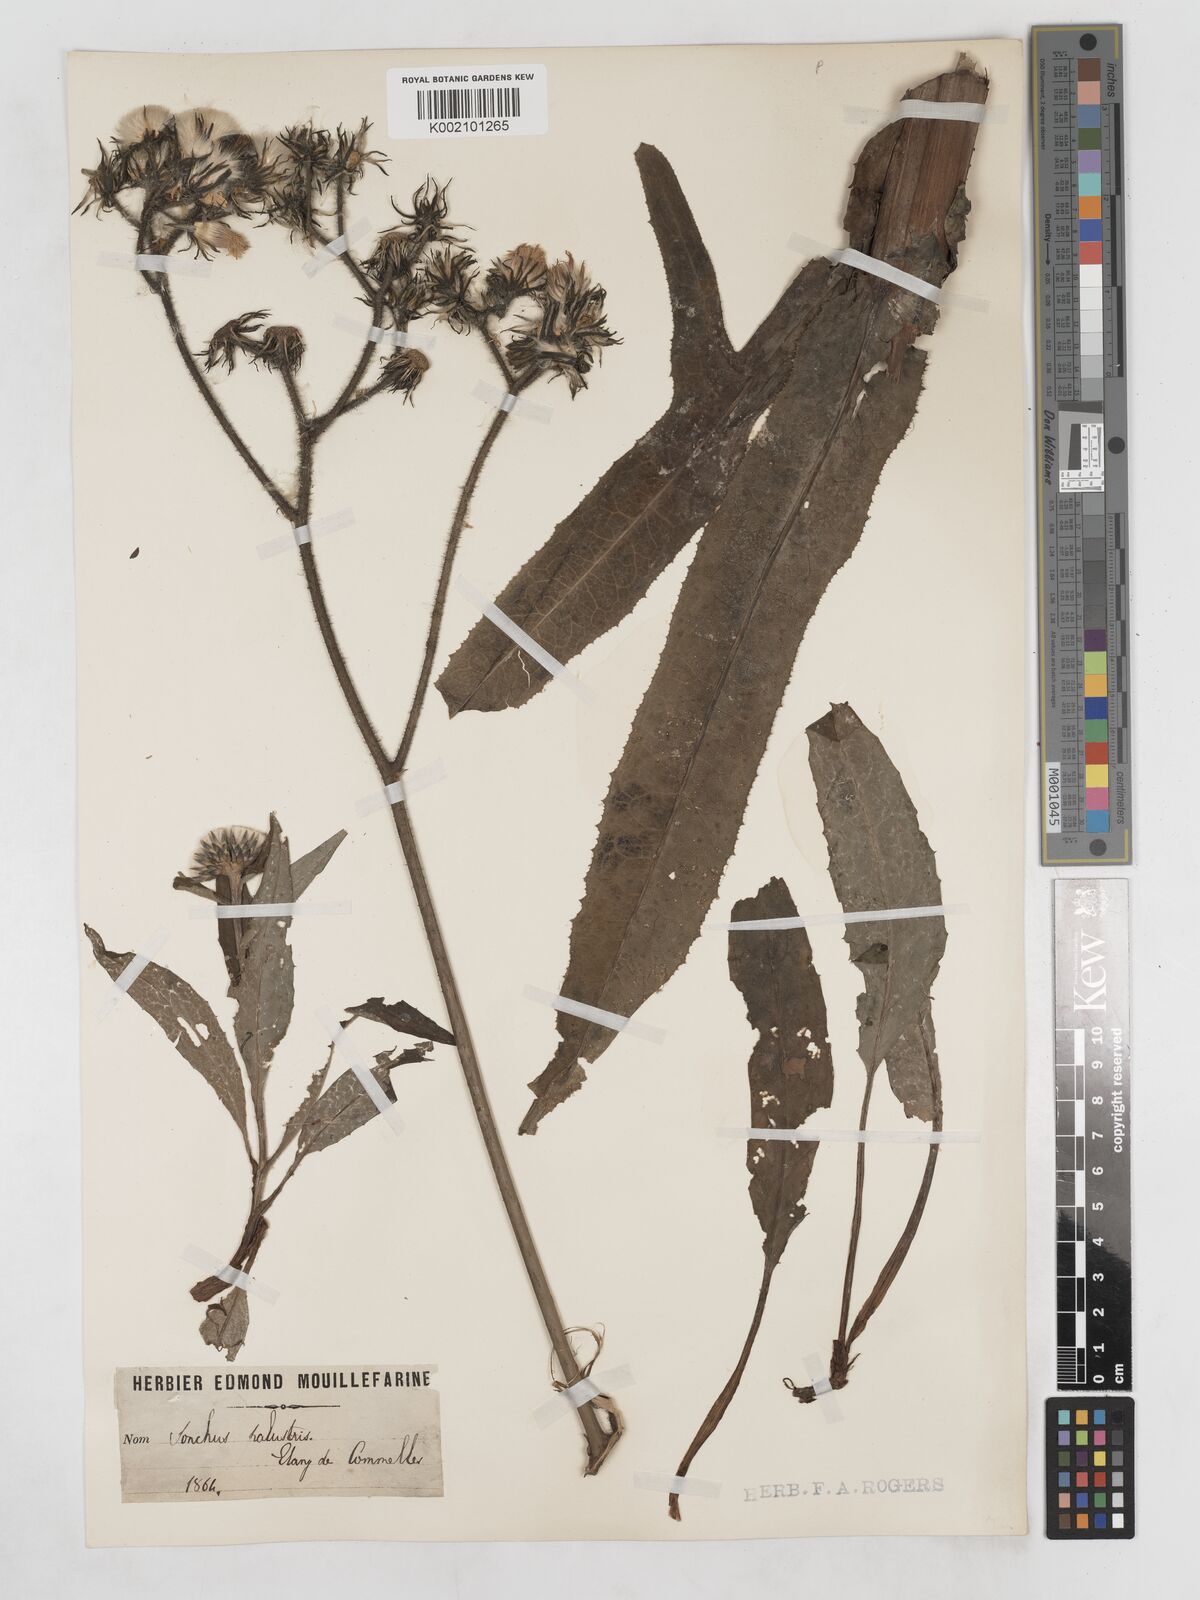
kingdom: Plantae
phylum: Tracheophyta
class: Magnoliopsida
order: Asterales
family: Asteraceae
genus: Sonchus
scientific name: Sonchus palustris
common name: Marsh sow-thistle
